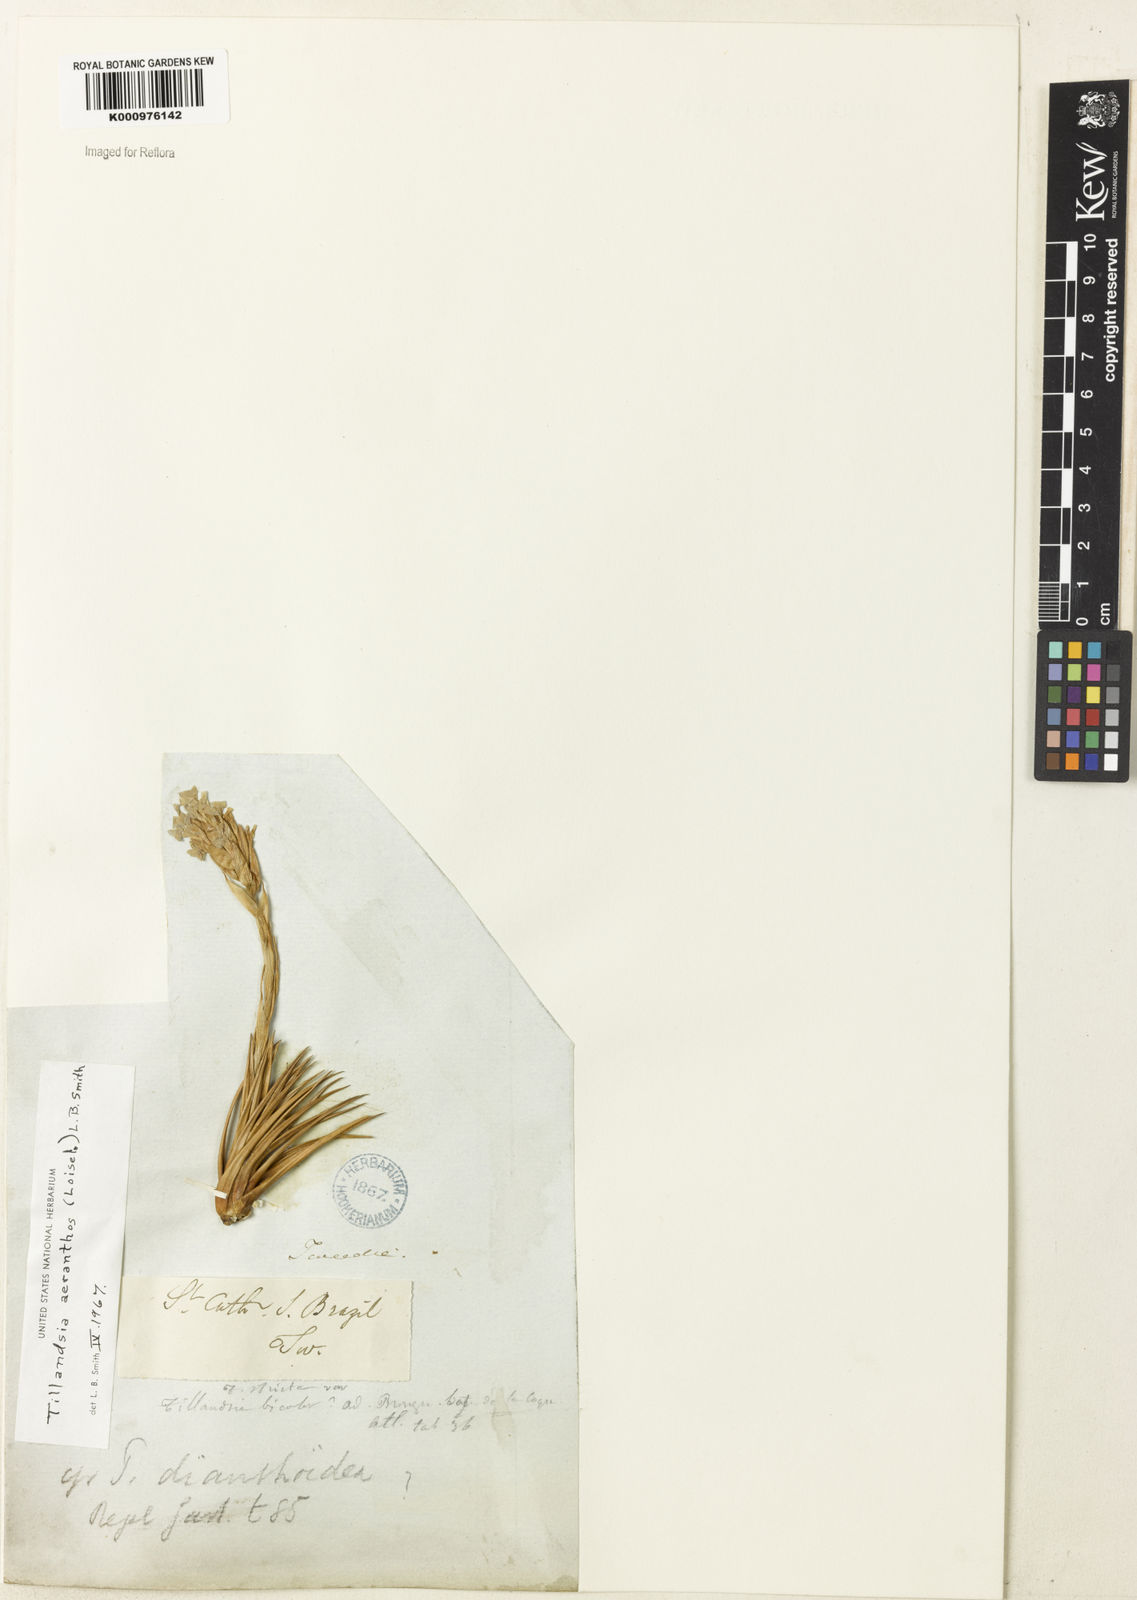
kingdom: Plantae
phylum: Tracheophyta
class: Liliopsida
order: Poales
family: Bromeliaceae
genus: Tillandsia
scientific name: Tillandsia
